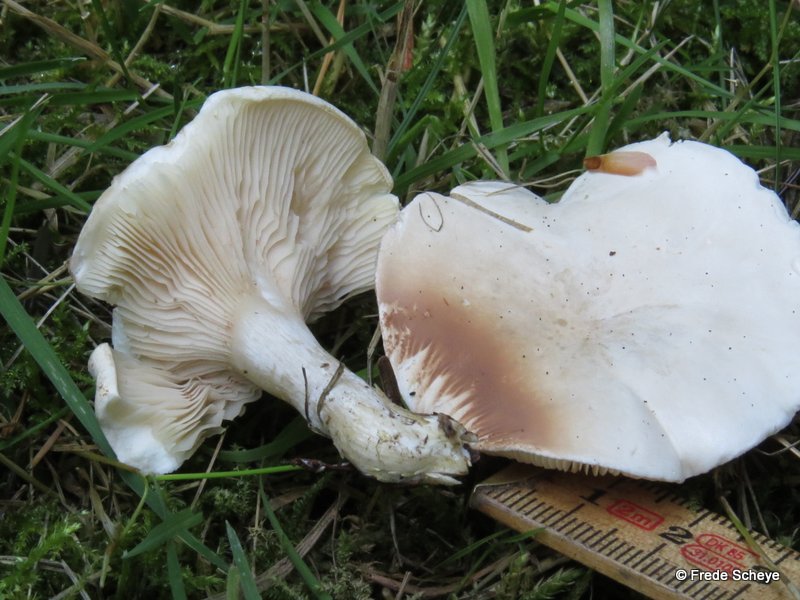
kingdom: Fungi
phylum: Basidiomycota
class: Agaricomycetes
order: Agaricales
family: Entolomataceae
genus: Clitopilus
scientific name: Clitopilus prunulus
